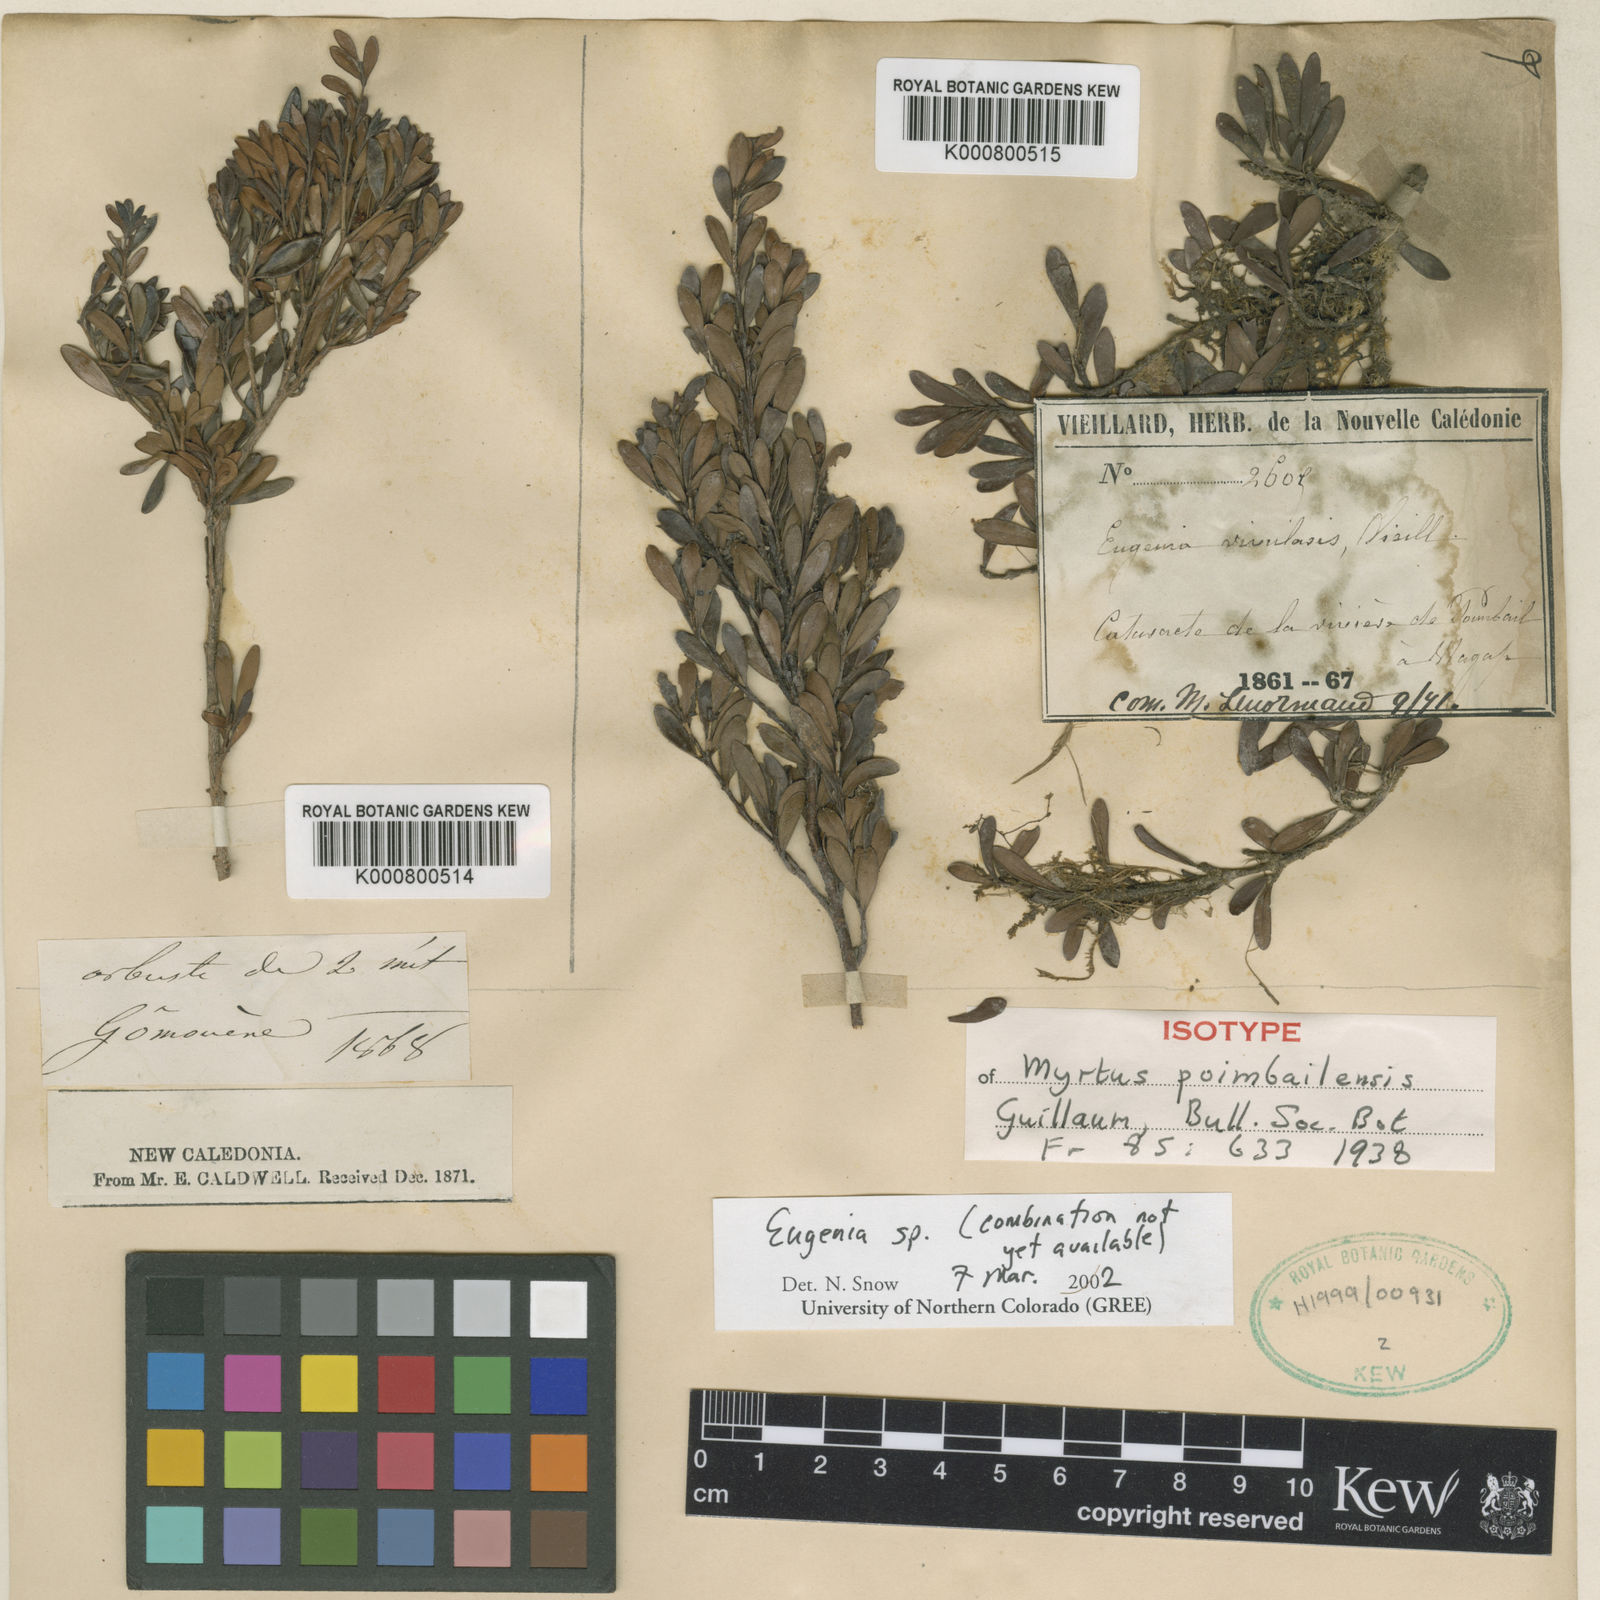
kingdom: Plantae
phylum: Tracheophyta
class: Magnoliopsida
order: Myrtales
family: Myrtaceae
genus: Eugenia
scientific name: Eugenia poimbailensis
